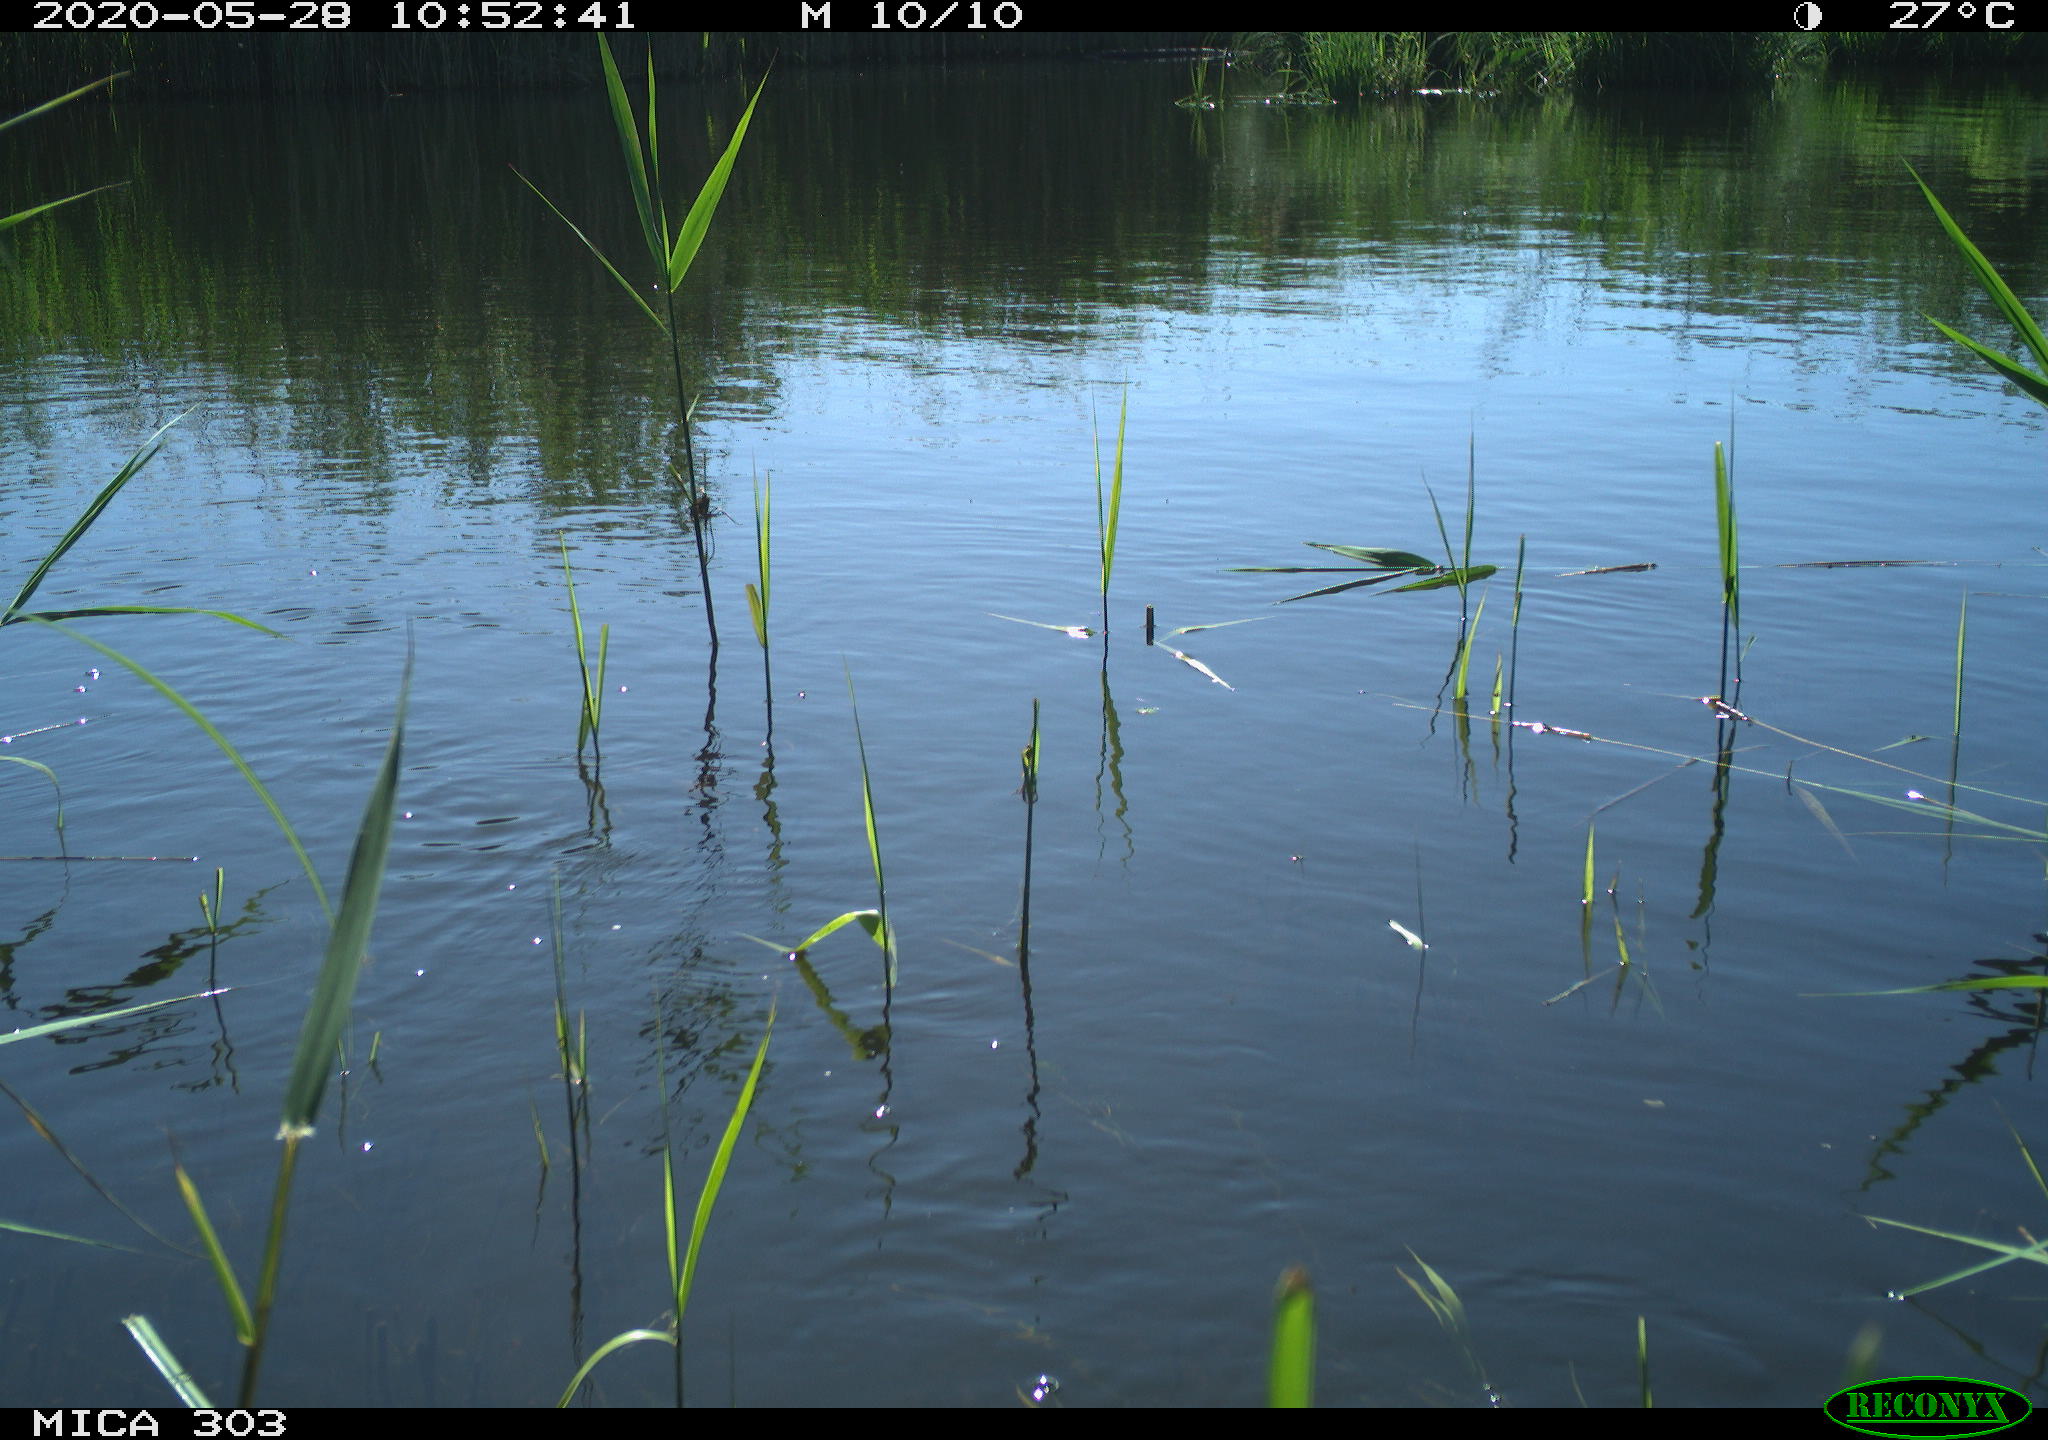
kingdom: Animalia
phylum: Chordata
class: Aves
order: Gruiformes
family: Rallidae
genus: Gallinula
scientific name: Gallinula chloropus
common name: Common moorhen
